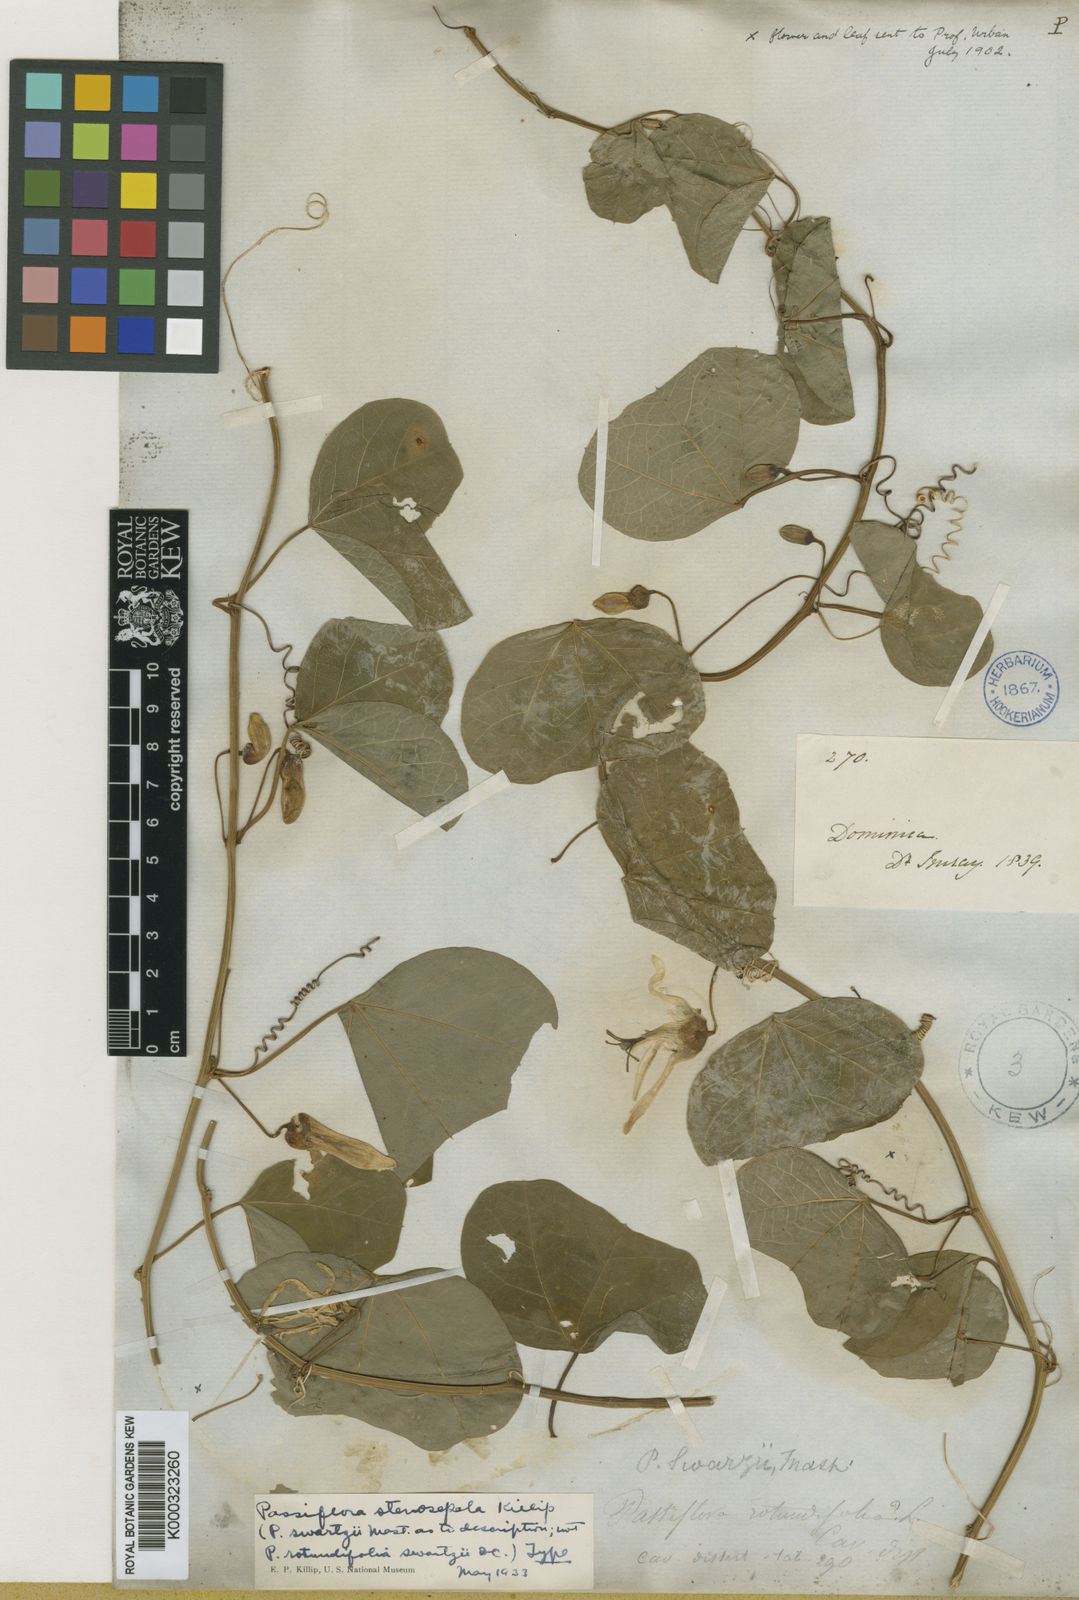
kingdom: Plantae
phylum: Tracheophyta
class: Magnoliopsida
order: Malpighiales
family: Passifloraceae
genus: Passiflora
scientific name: Passiflora stenosepala
